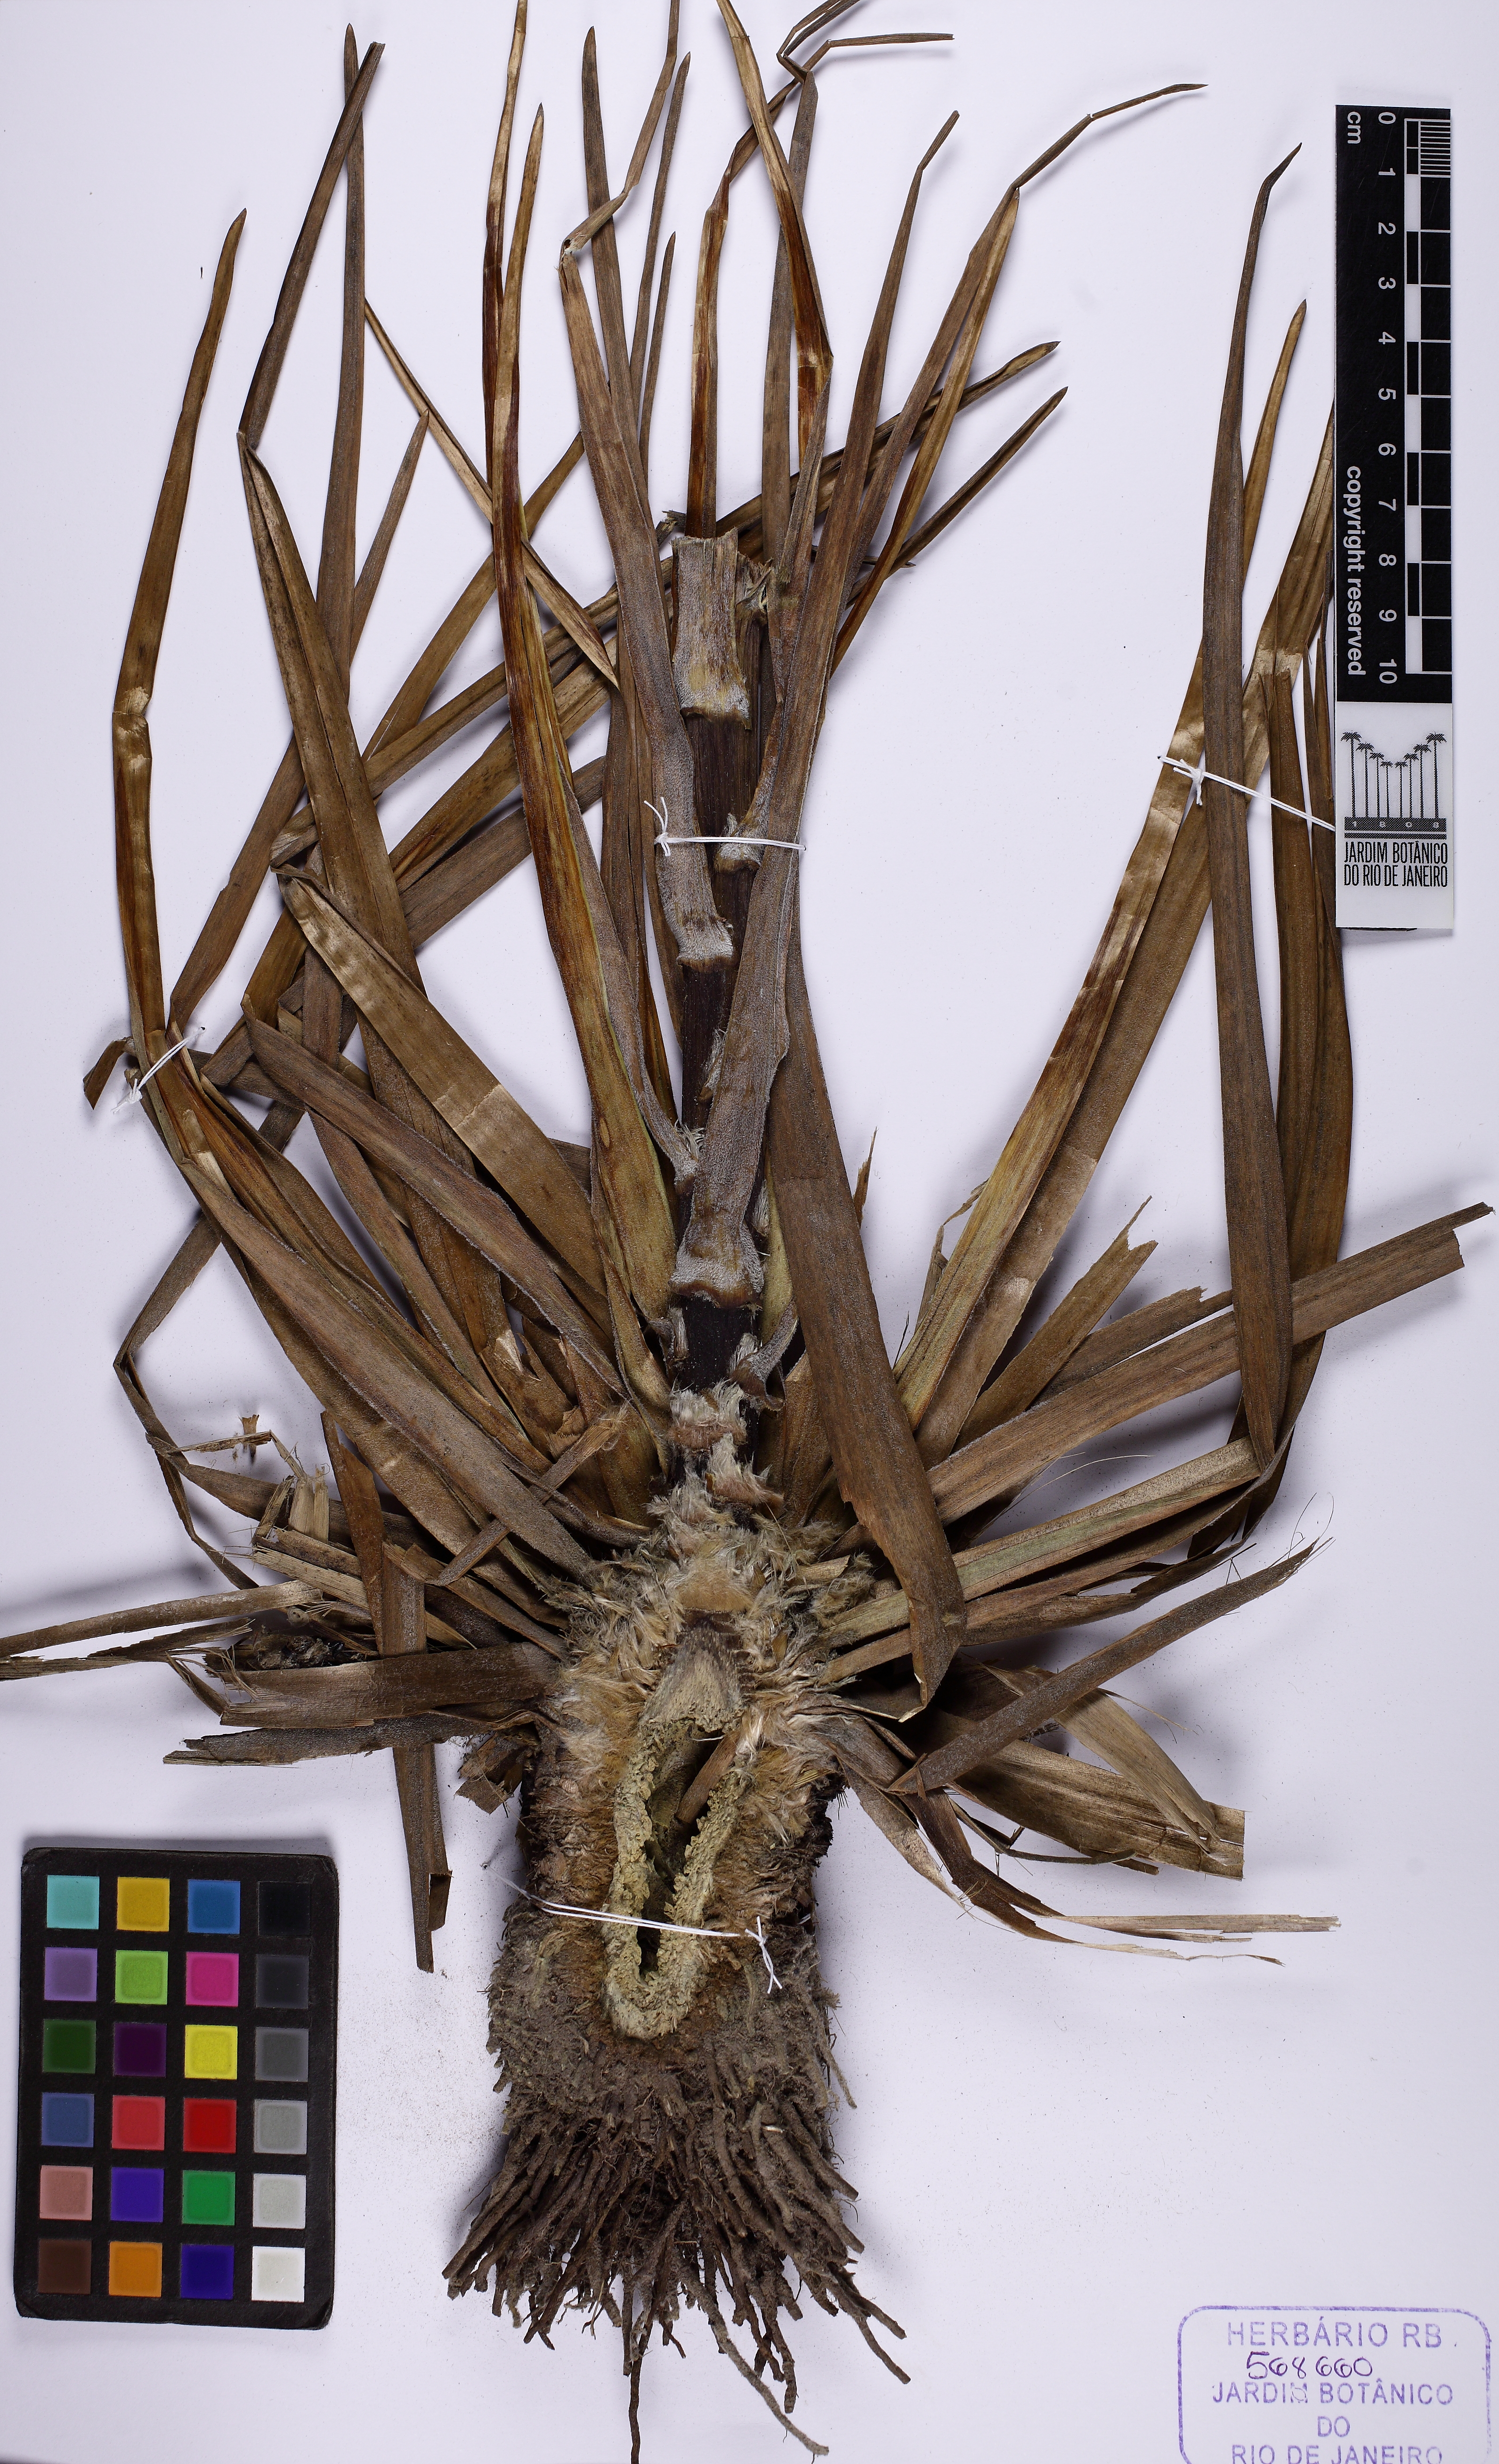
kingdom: Plantae
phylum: Tracheophyta
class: Liliopsida
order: Poales
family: Eriocaulaceae
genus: Paepalanthus
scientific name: Paepalanthus chiquitensis
